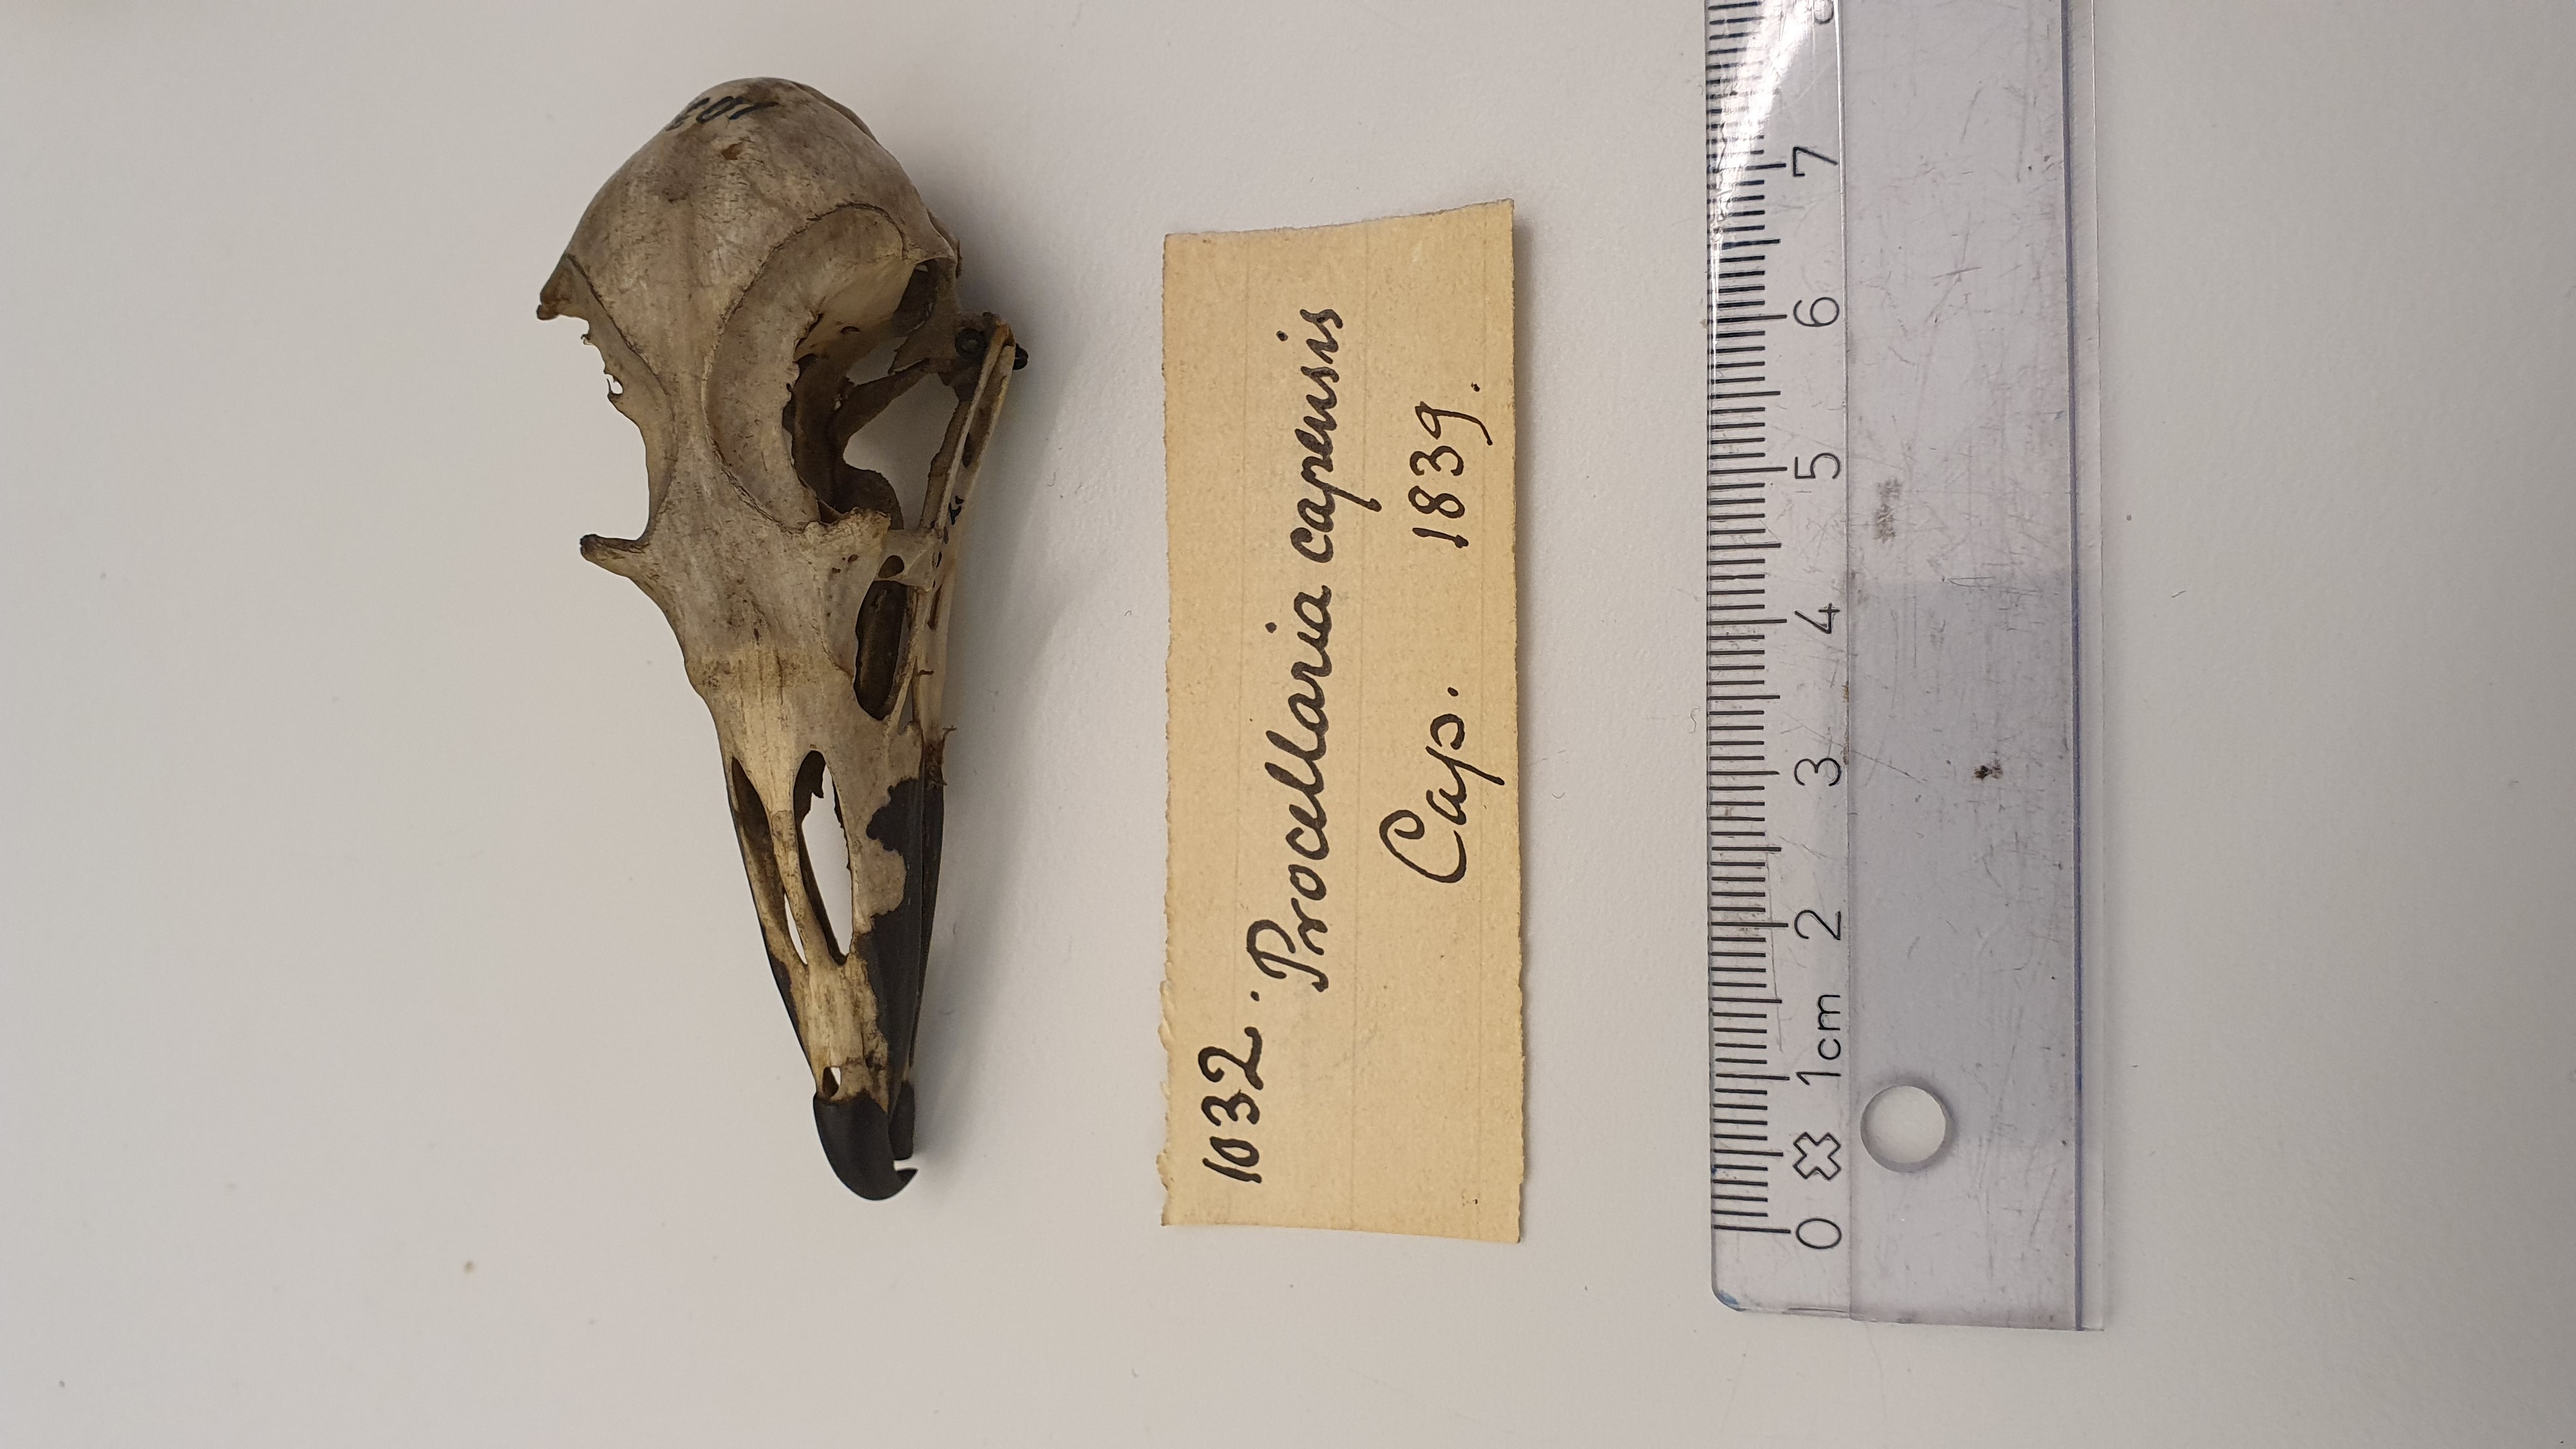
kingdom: Animalia
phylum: Chordata
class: Aves
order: Procellariiformes
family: Procellariidae
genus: Daption
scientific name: Daption capense
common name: Cape petrel
